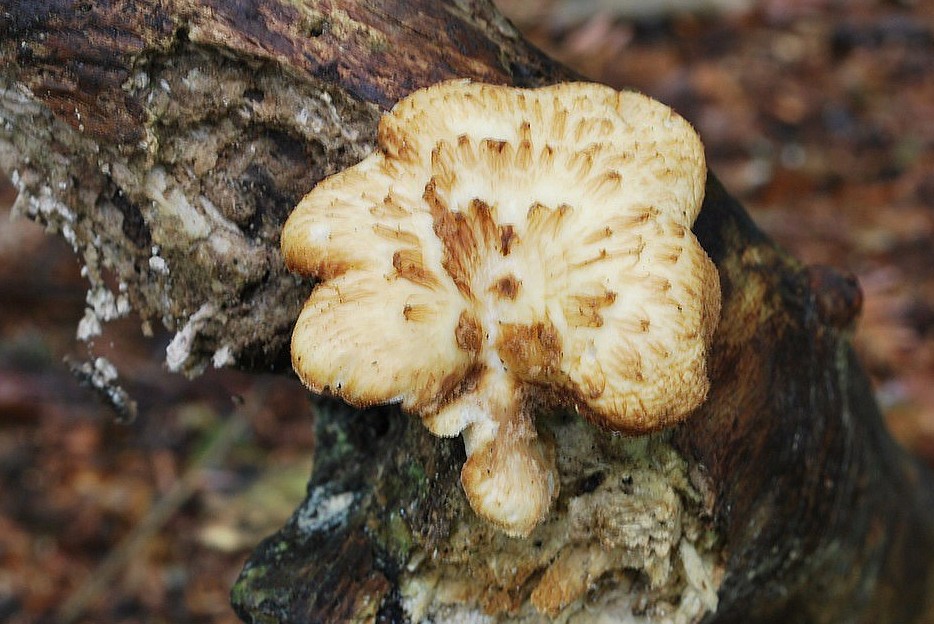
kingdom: Fungi
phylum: Basidiomycota
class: Agaricomycetes
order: Polyporales
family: Polyporaceae
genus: Polyporus
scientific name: Polyporus tuberaster
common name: knoldet stilkporesvamp
